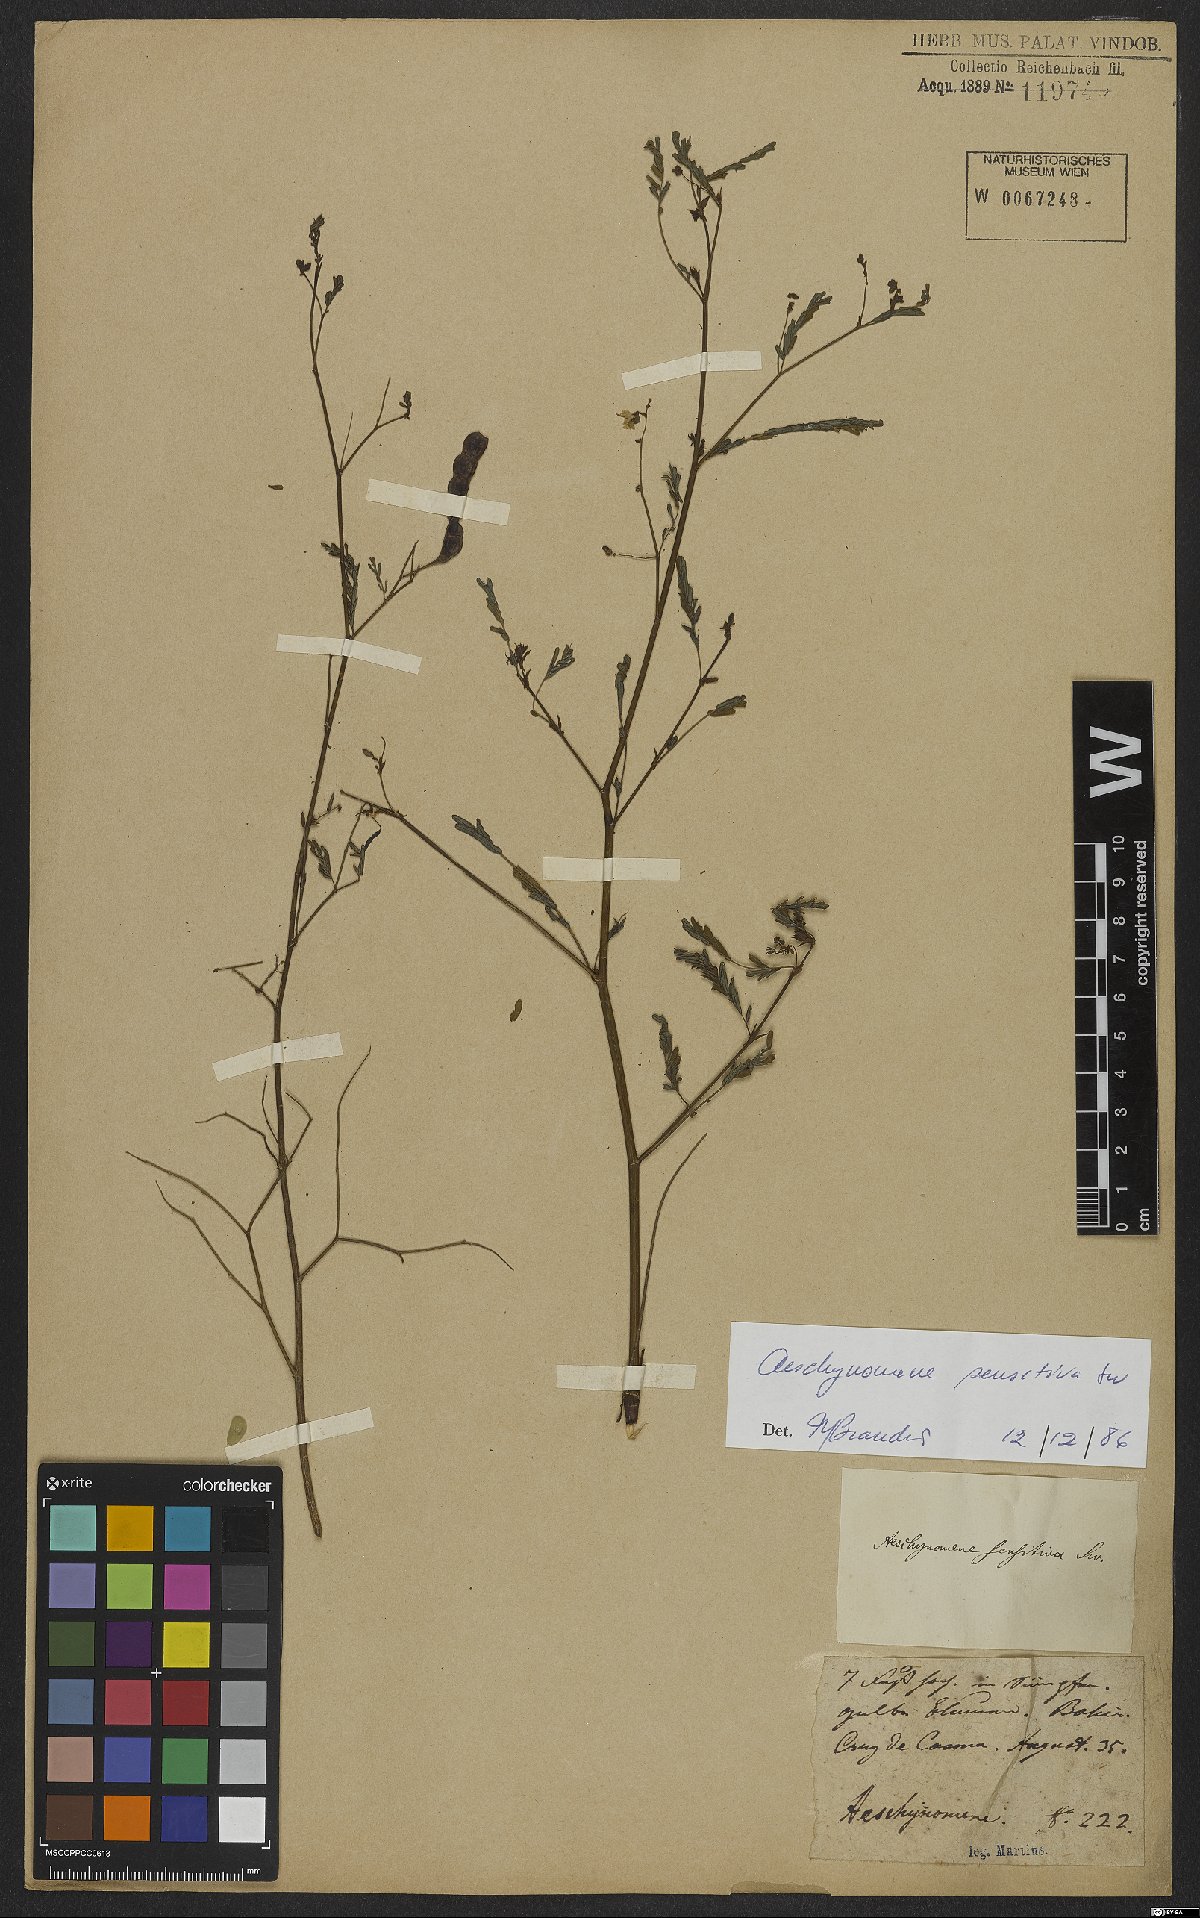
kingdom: Plantae
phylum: Tracheophyta
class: Magnoliopsida
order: Fabales
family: Fabaceae
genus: Aeschynomene
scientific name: Aeschynomene sensitiva
